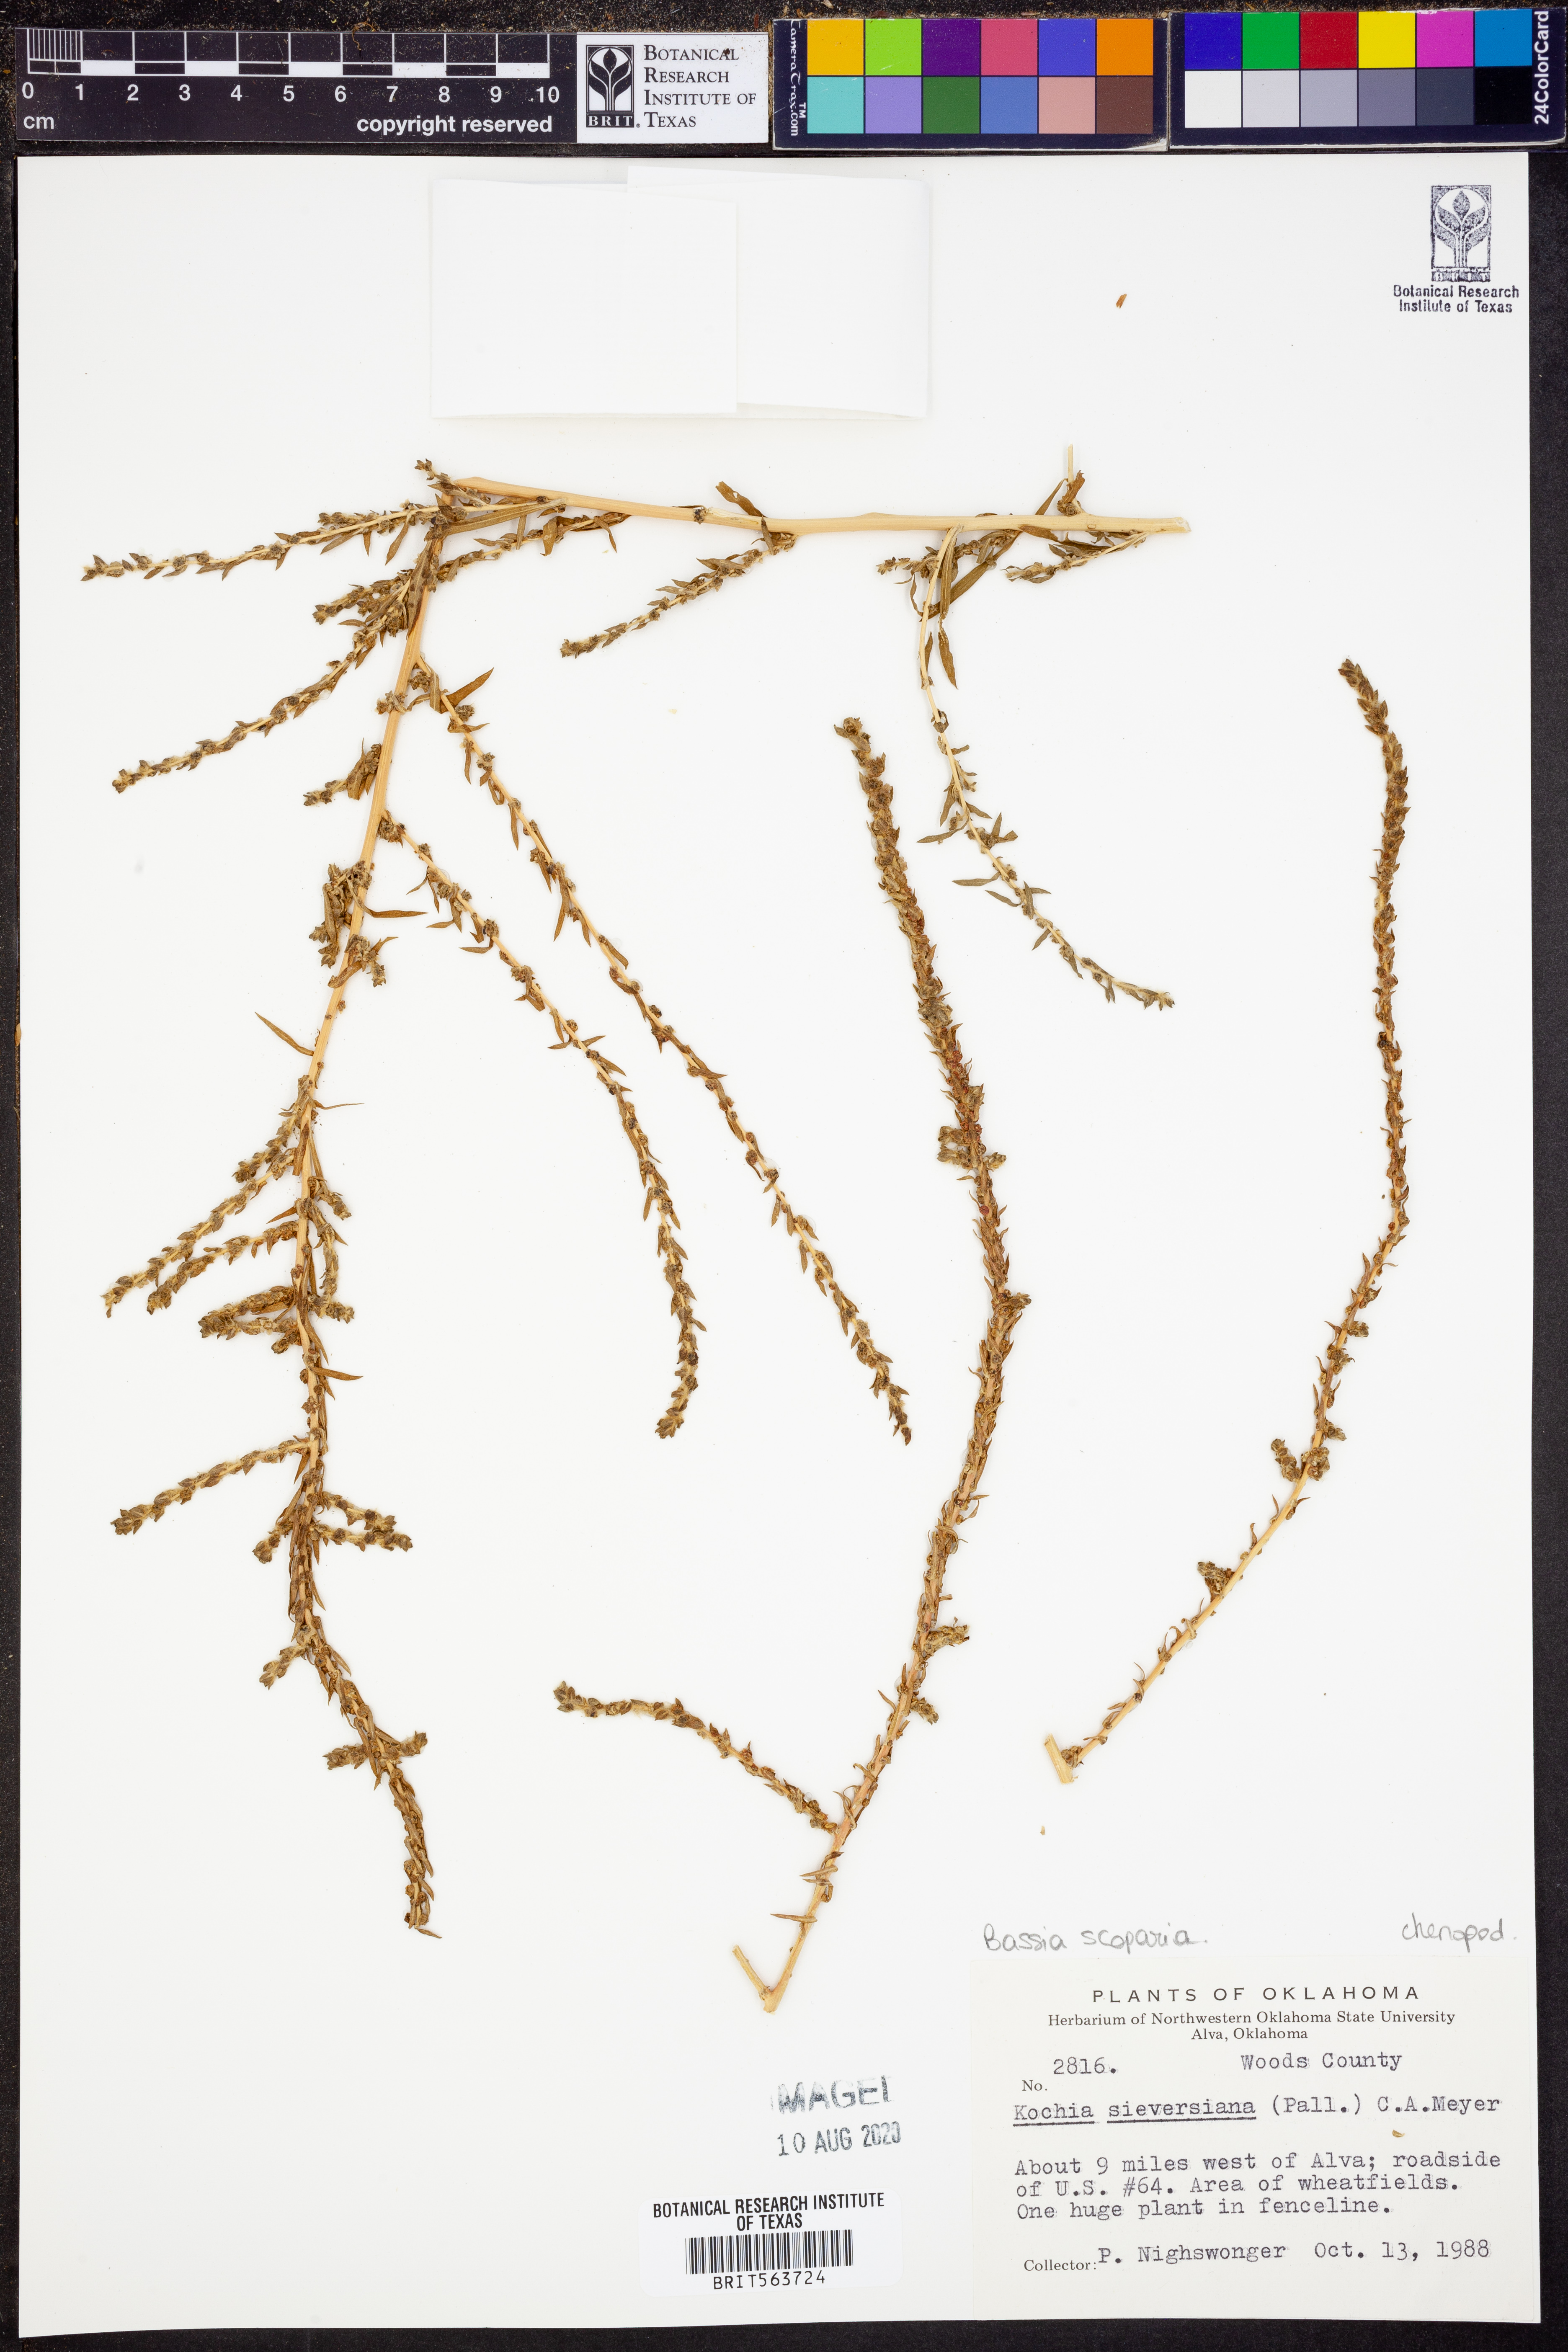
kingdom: Plantae
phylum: Tracheophyta
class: Magnoliopsida
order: Caryophyllales
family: Amaranthaceae
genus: Bassia
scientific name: Bassia scoparia
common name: Belvedere
